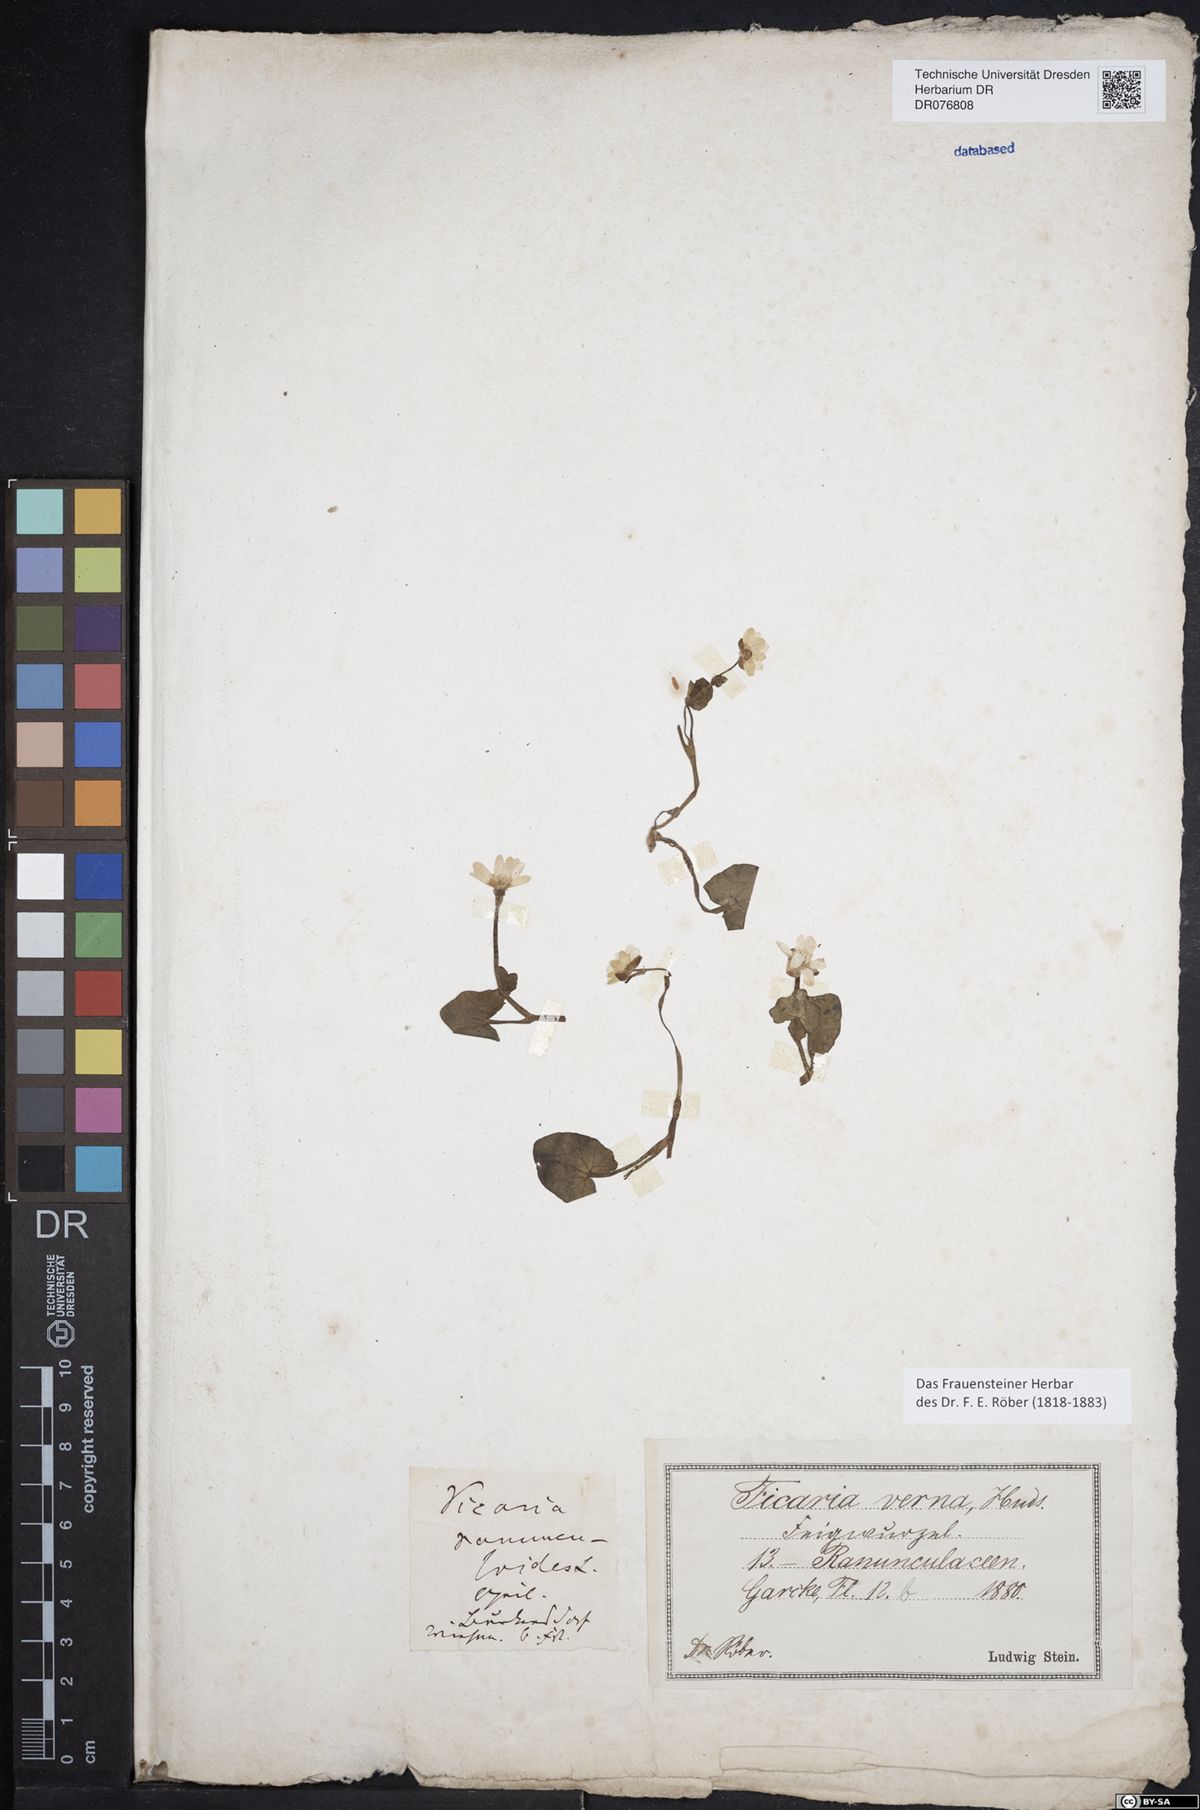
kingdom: Plantae
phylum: Tracheophyta
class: Magnoliopsida
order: Ranunculales
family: Ranunculaceae
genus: Ficaria
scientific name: Ficaria verna
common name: Lesser celandine
